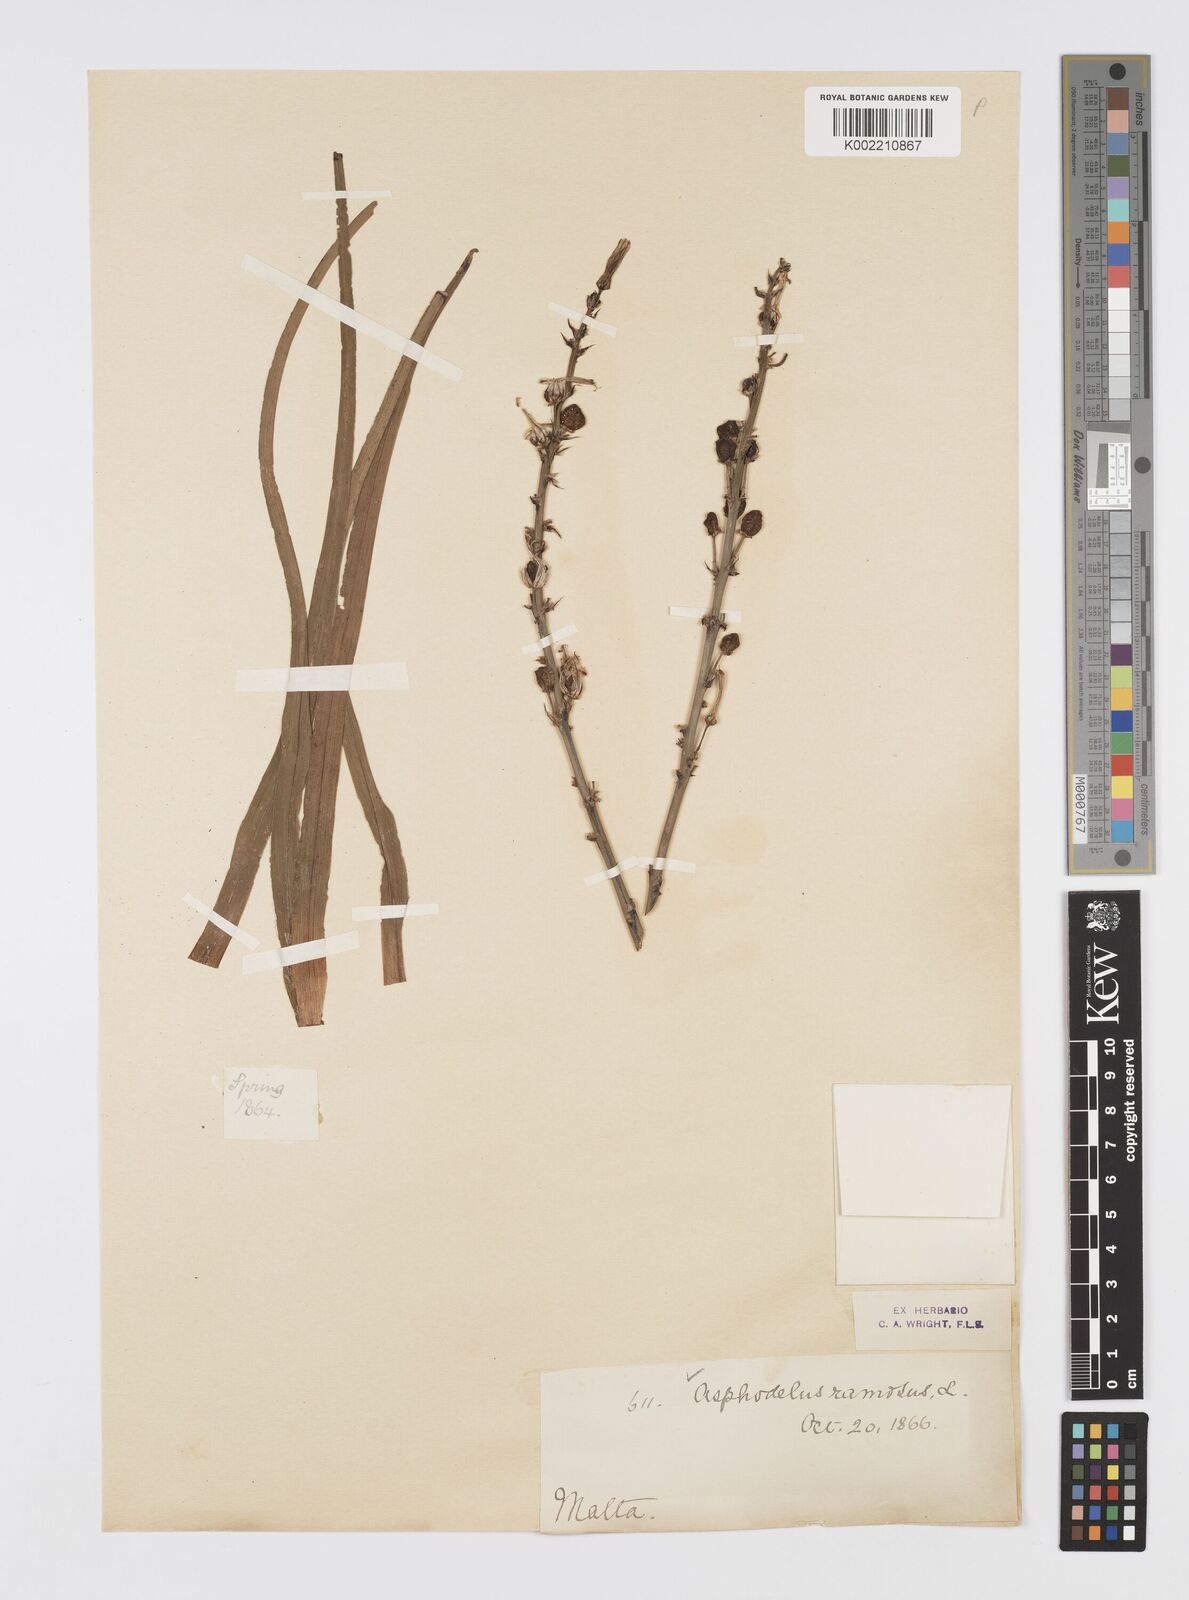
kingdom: Plantae
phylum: Tracheophyta
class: Liliopsida
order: Asparagales
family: Asphodelaceae
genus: Asphodelus
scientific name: Asphodelus albus
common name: White asphodel
